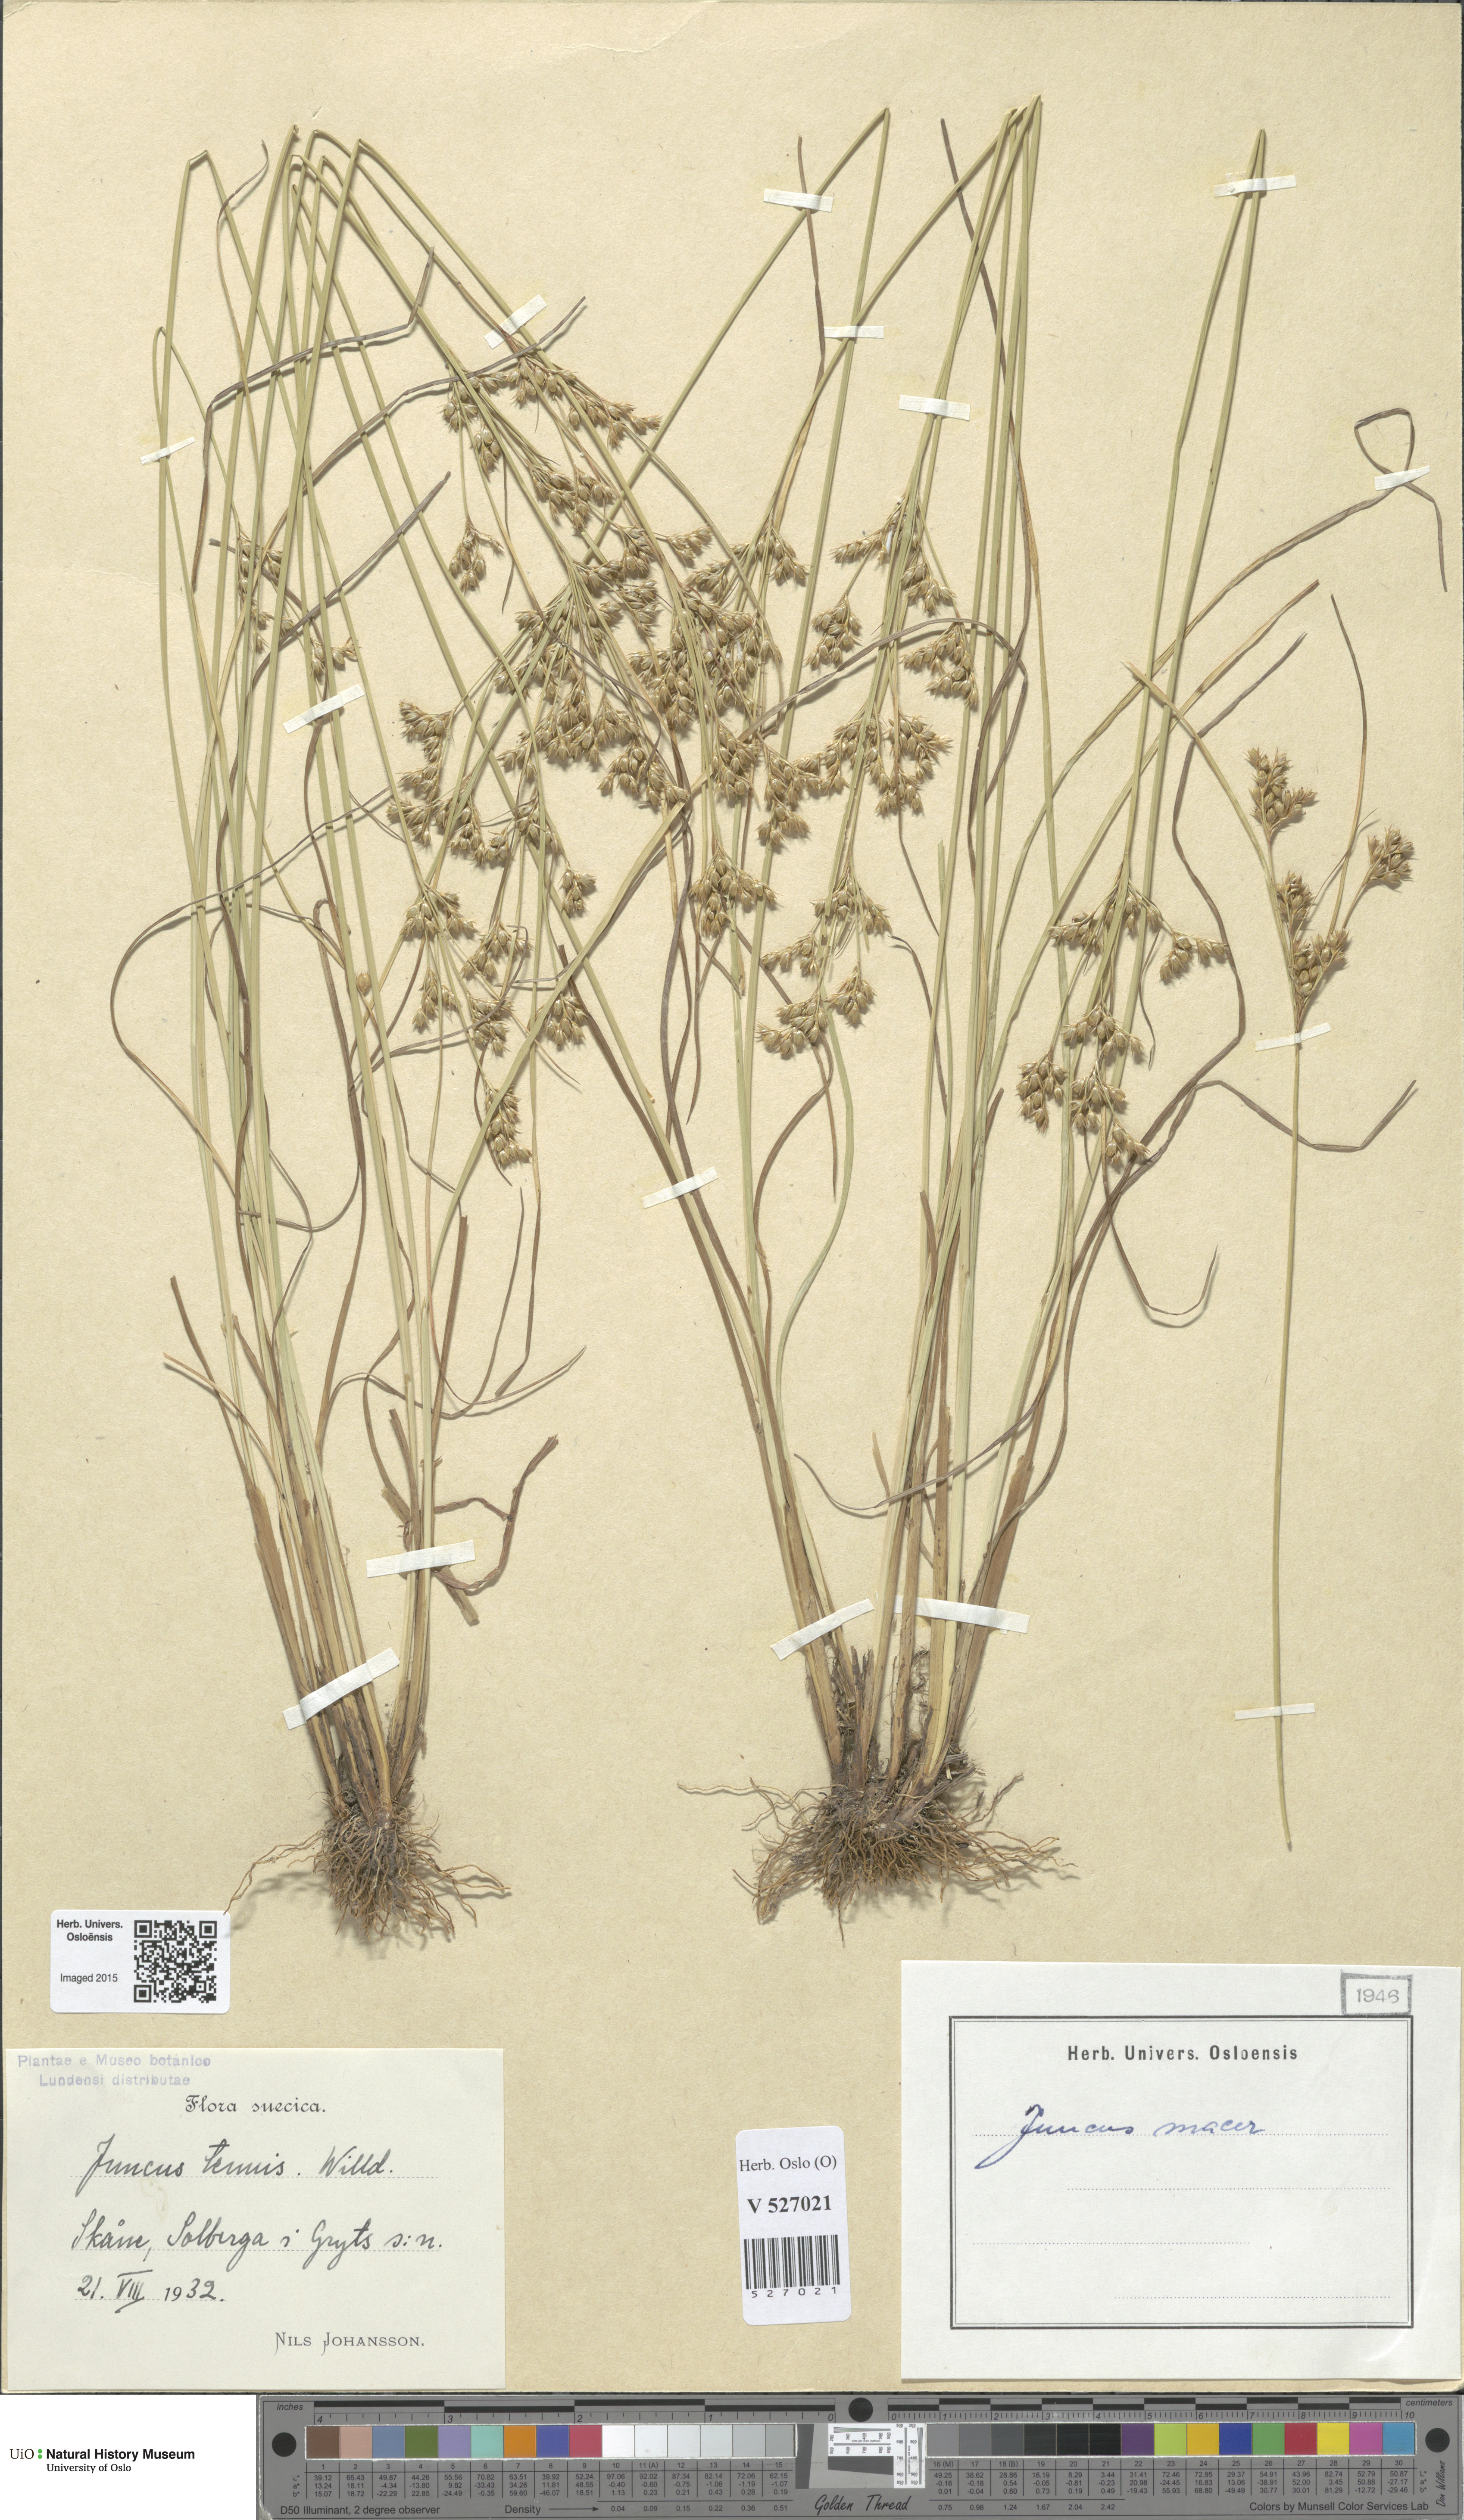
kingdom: Plantae
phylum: Tracheophyta
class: Liliopsida
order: Poales
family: Juncaceae
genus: Juncus
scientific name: Juncus tenuis
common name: Slender rush
